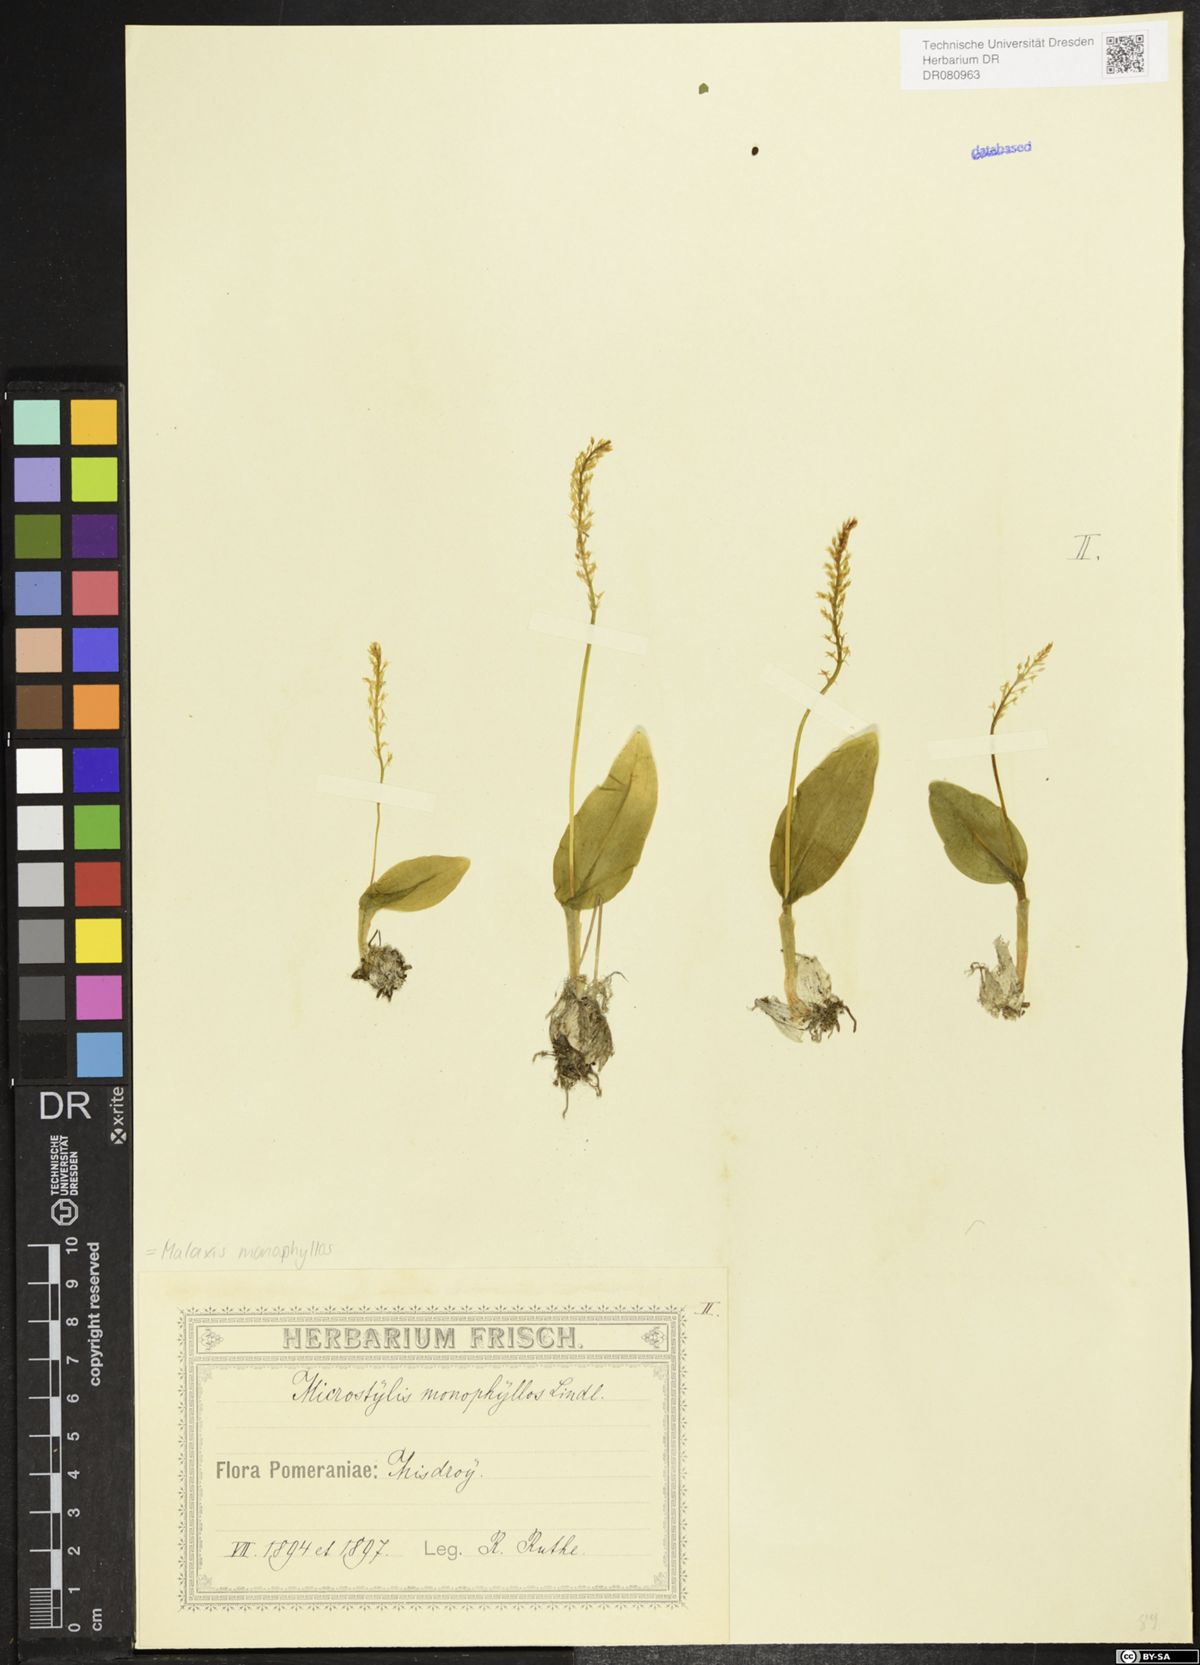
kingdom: Plantae
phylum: Tracheophyta
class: Liliopsida
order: Asparagales
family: Orchidaceae
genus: Malaxis
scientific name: Malaxis monophyllos
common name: White adder's-mouth
